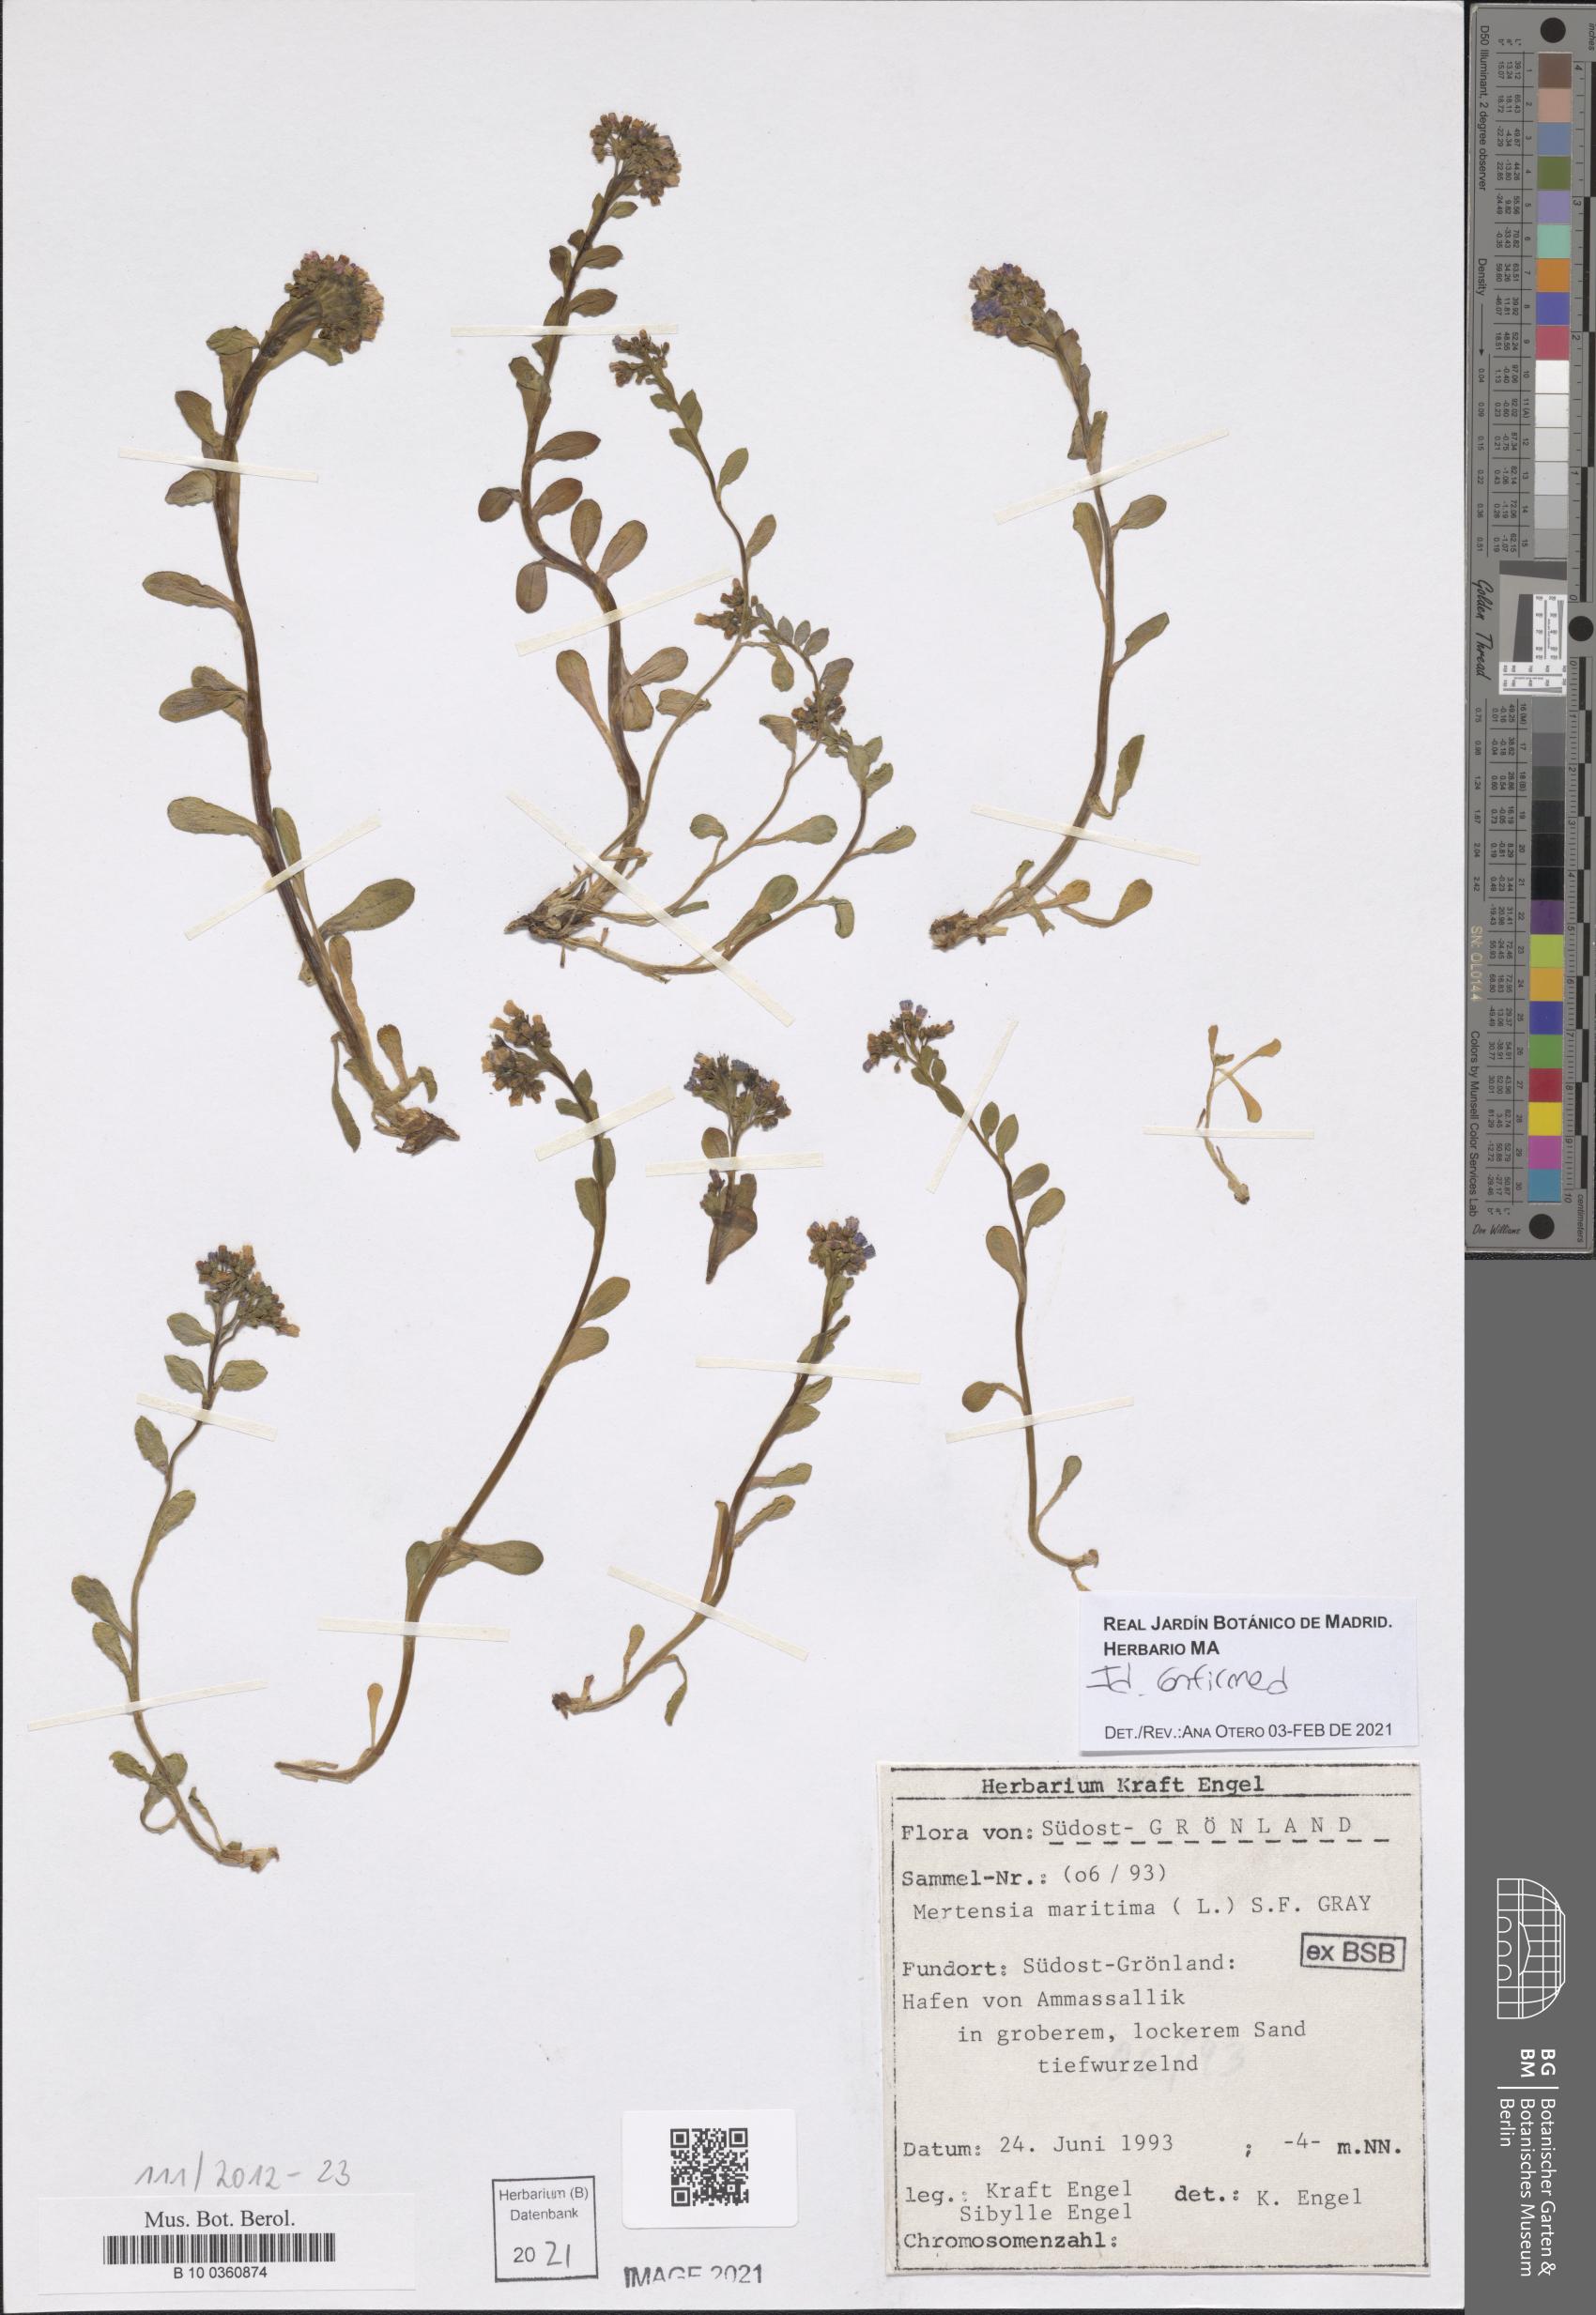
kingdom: Plantae
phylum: Tracheophyta
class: Magnoliopsida
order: Boraginales
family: Boraginaceae
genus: Mertensia
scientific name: Mertensia maritima
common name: Oysterplant
